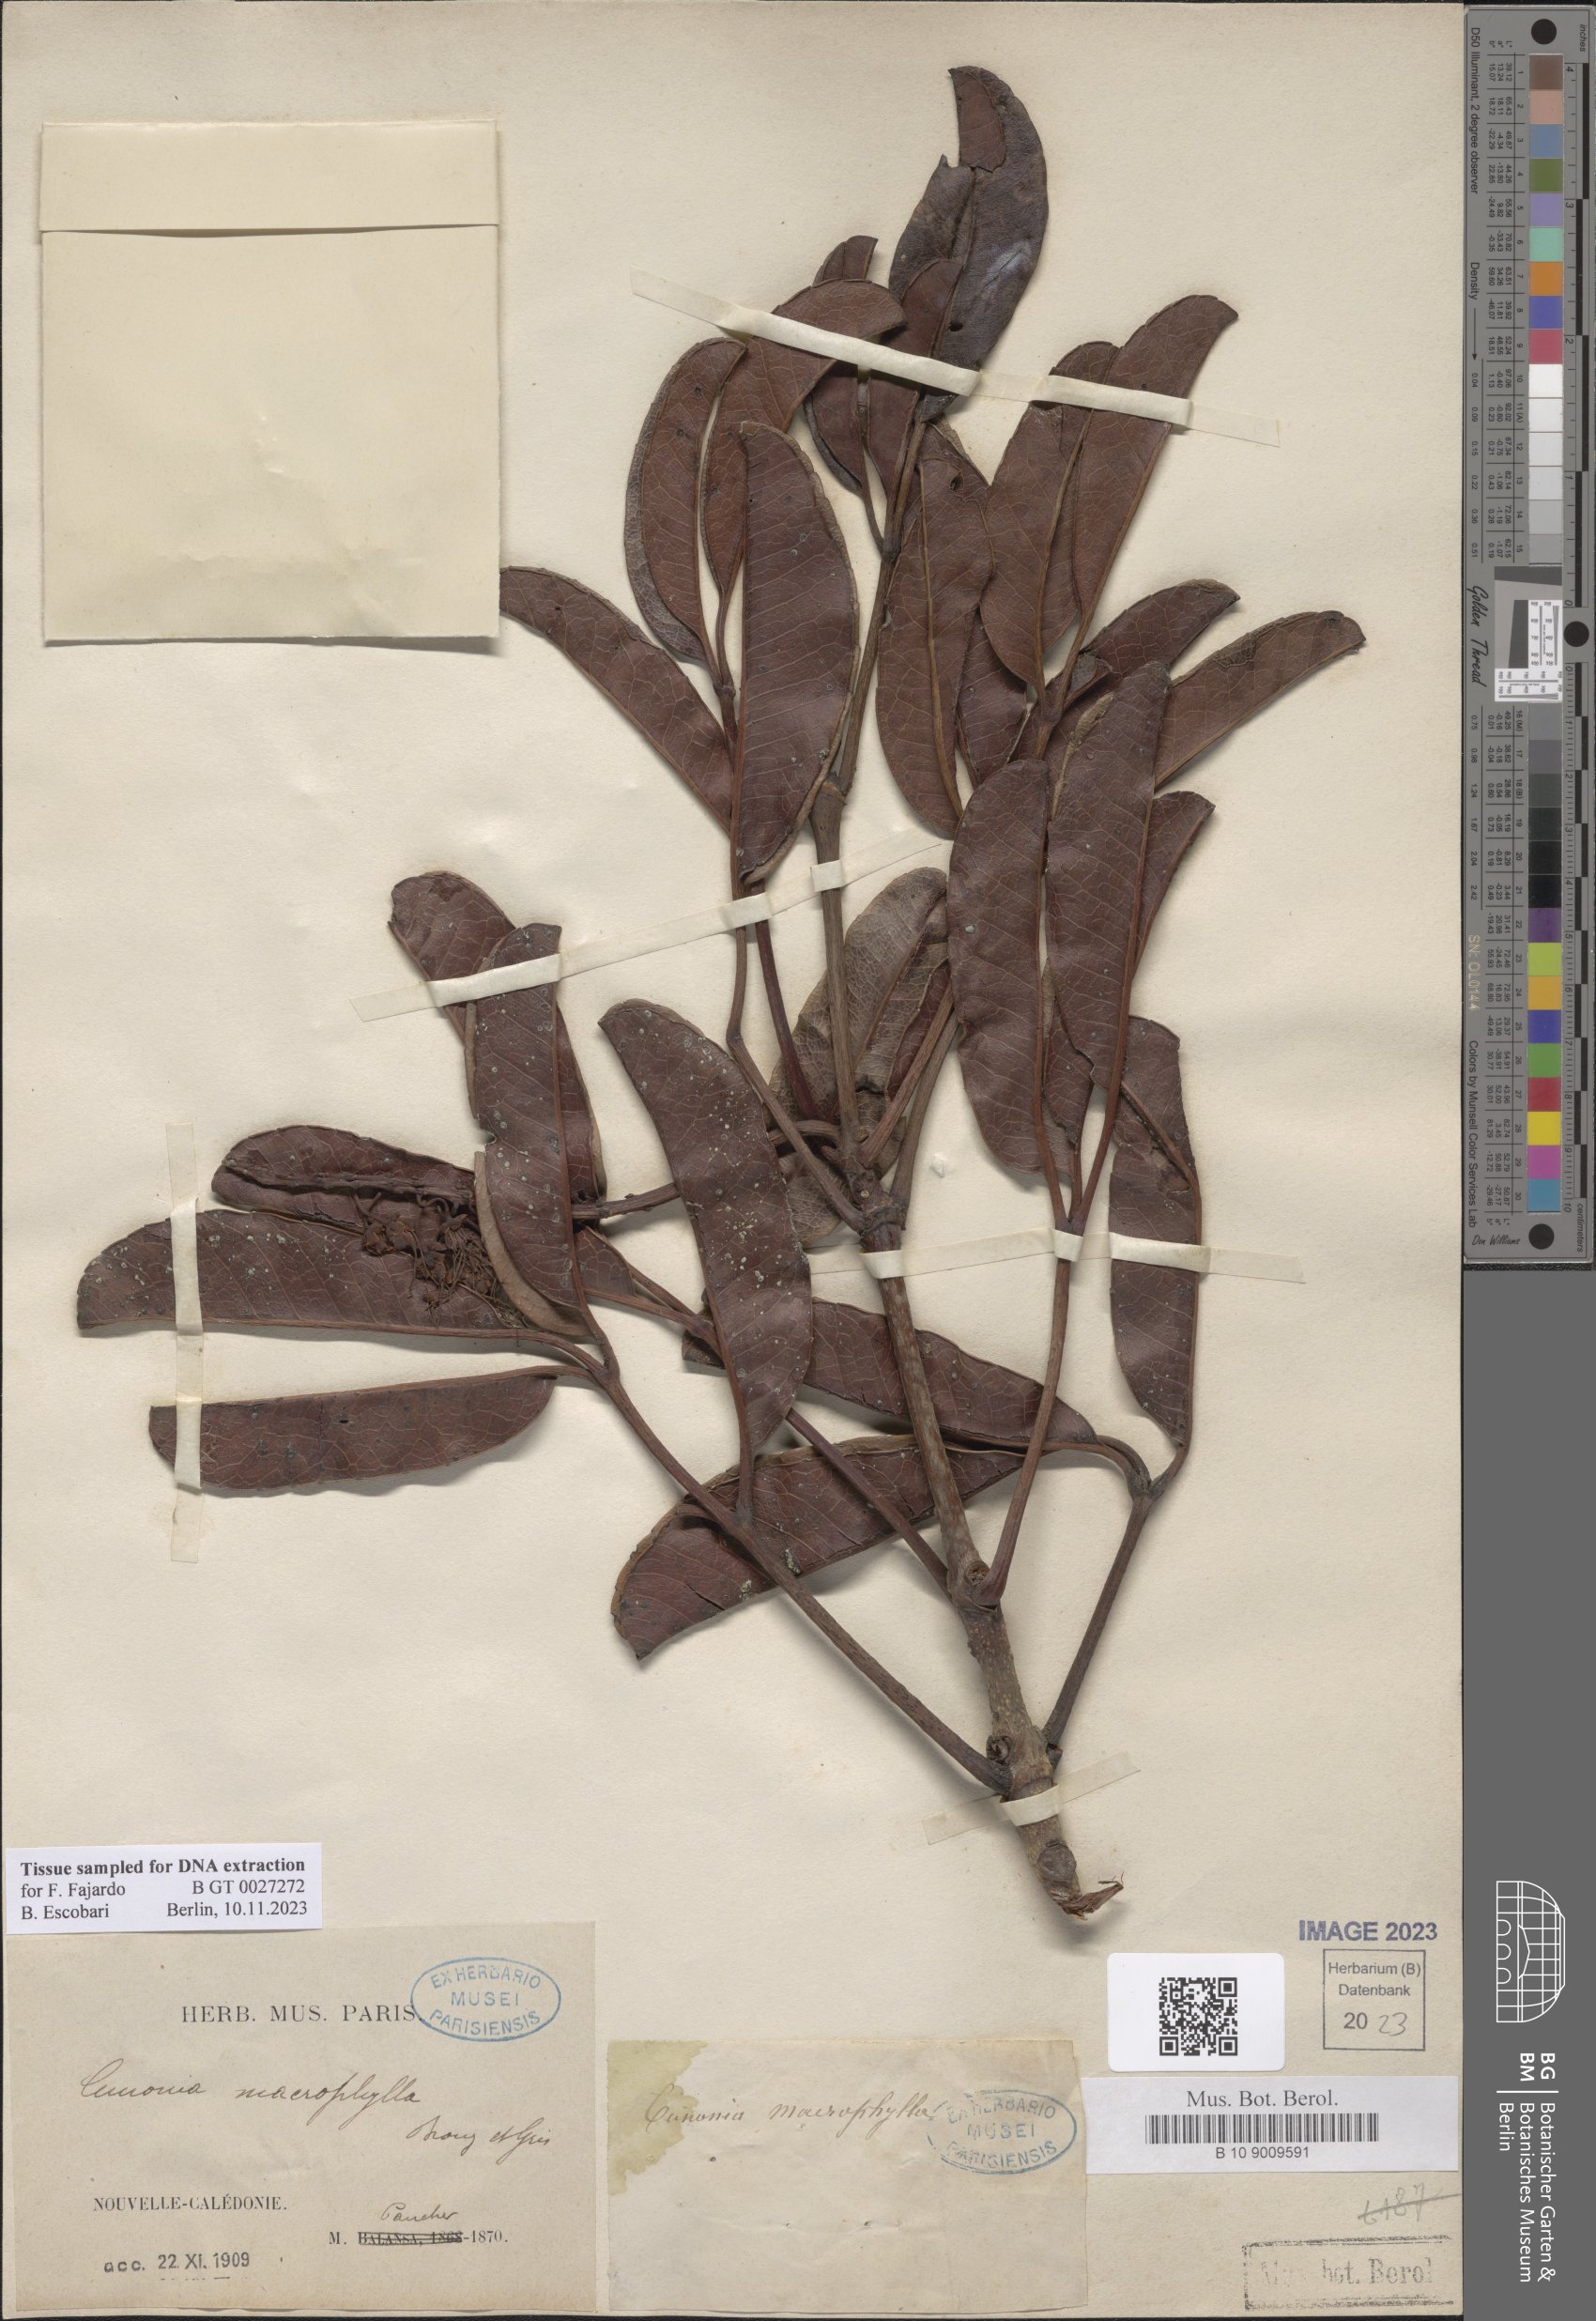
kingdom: Plantae
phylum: Tracheophyta
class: Magnoliopsida
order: Oxalidales
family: Cunoniaceae
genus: Cunonia
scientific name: Cunonia macrophylla
